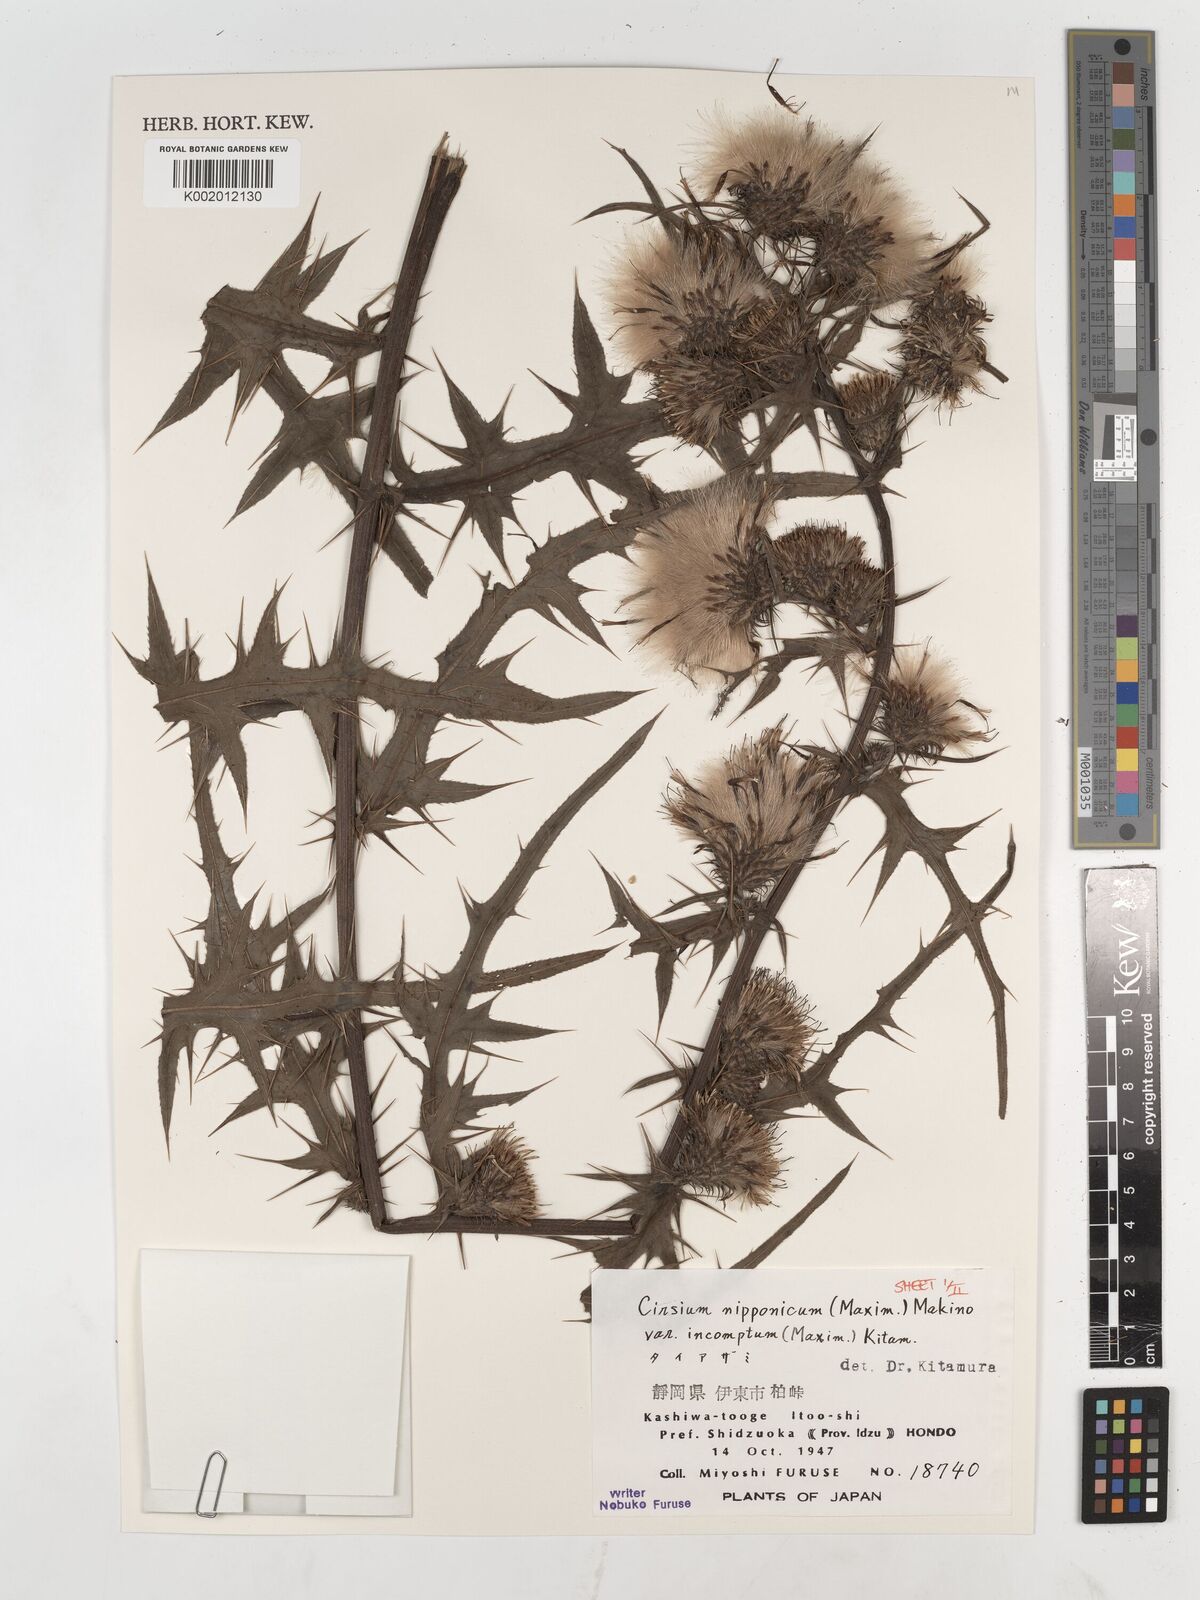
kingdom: Plantae
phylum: Tracheophyta
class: Magnoliopsida
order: Asterales
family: Asteraceae
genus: Cirsium
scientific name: Cirsium nipponicum
